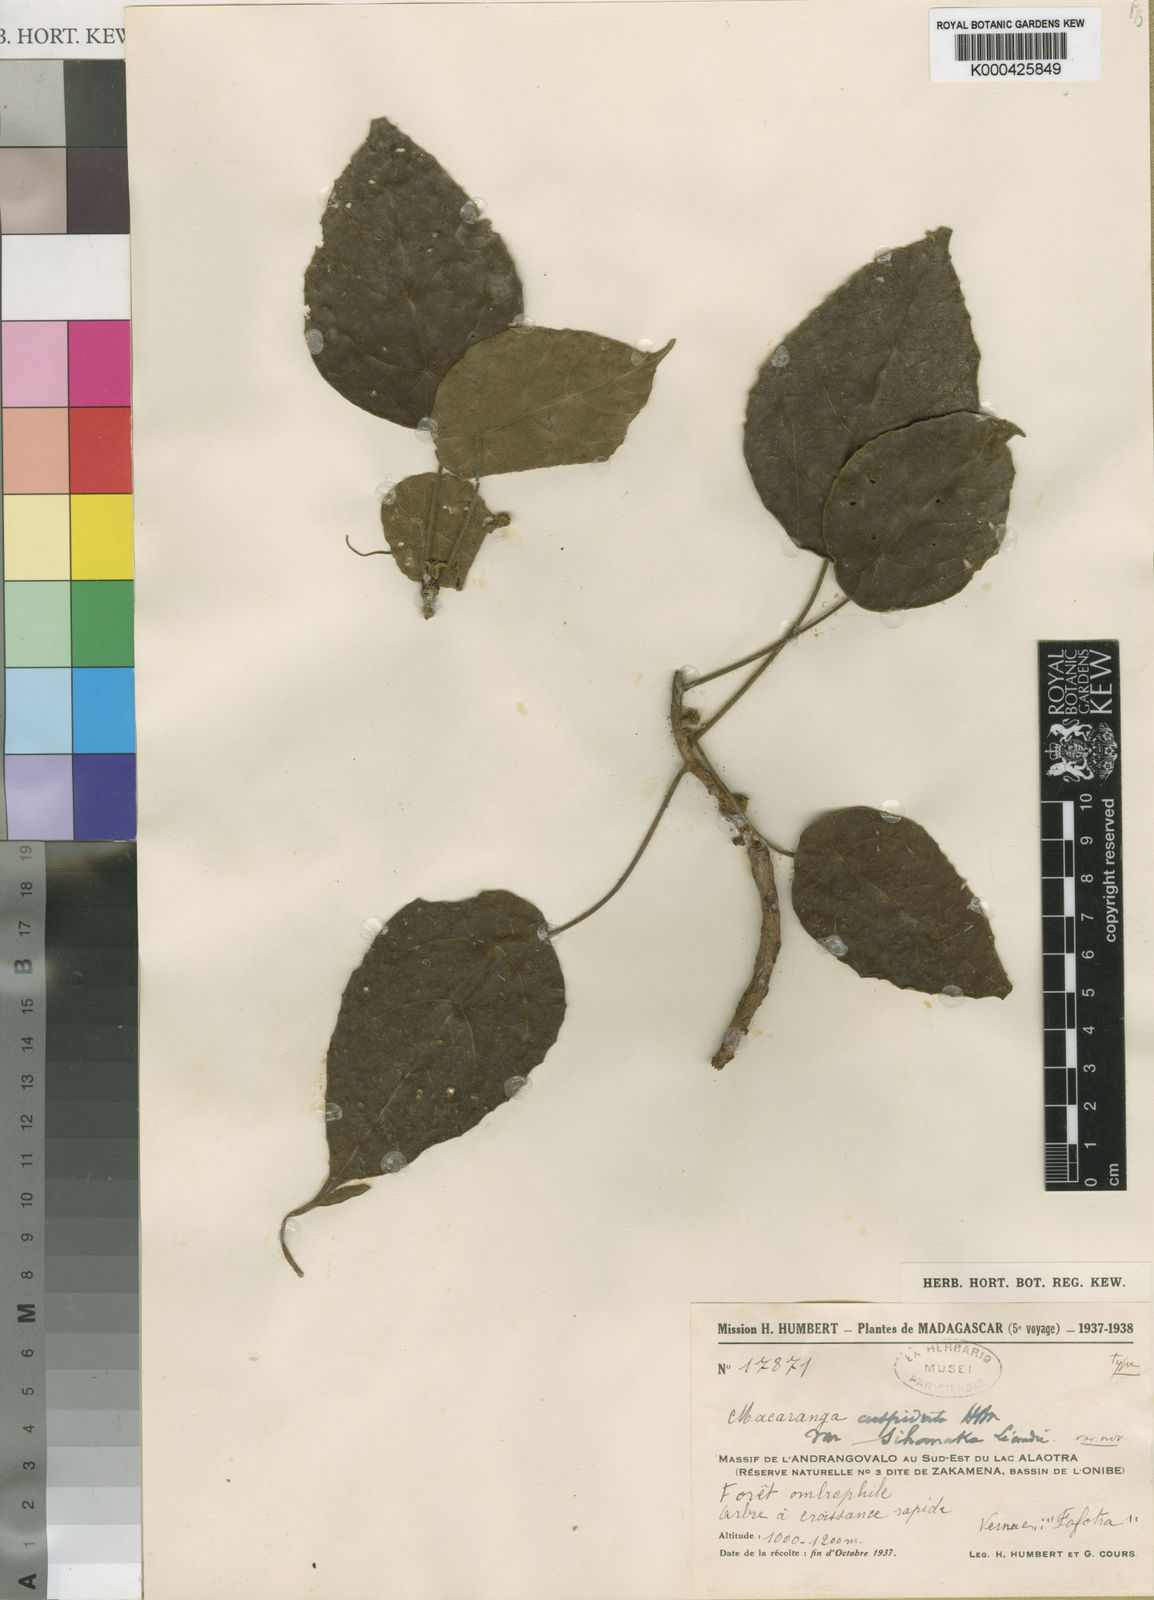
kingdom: Plantae
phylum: Tracheophyta
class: Magnoliopsida
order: Malpighiales
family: Euphorbiaceae
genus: Macaranga
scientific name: Macaranga cuspidata
